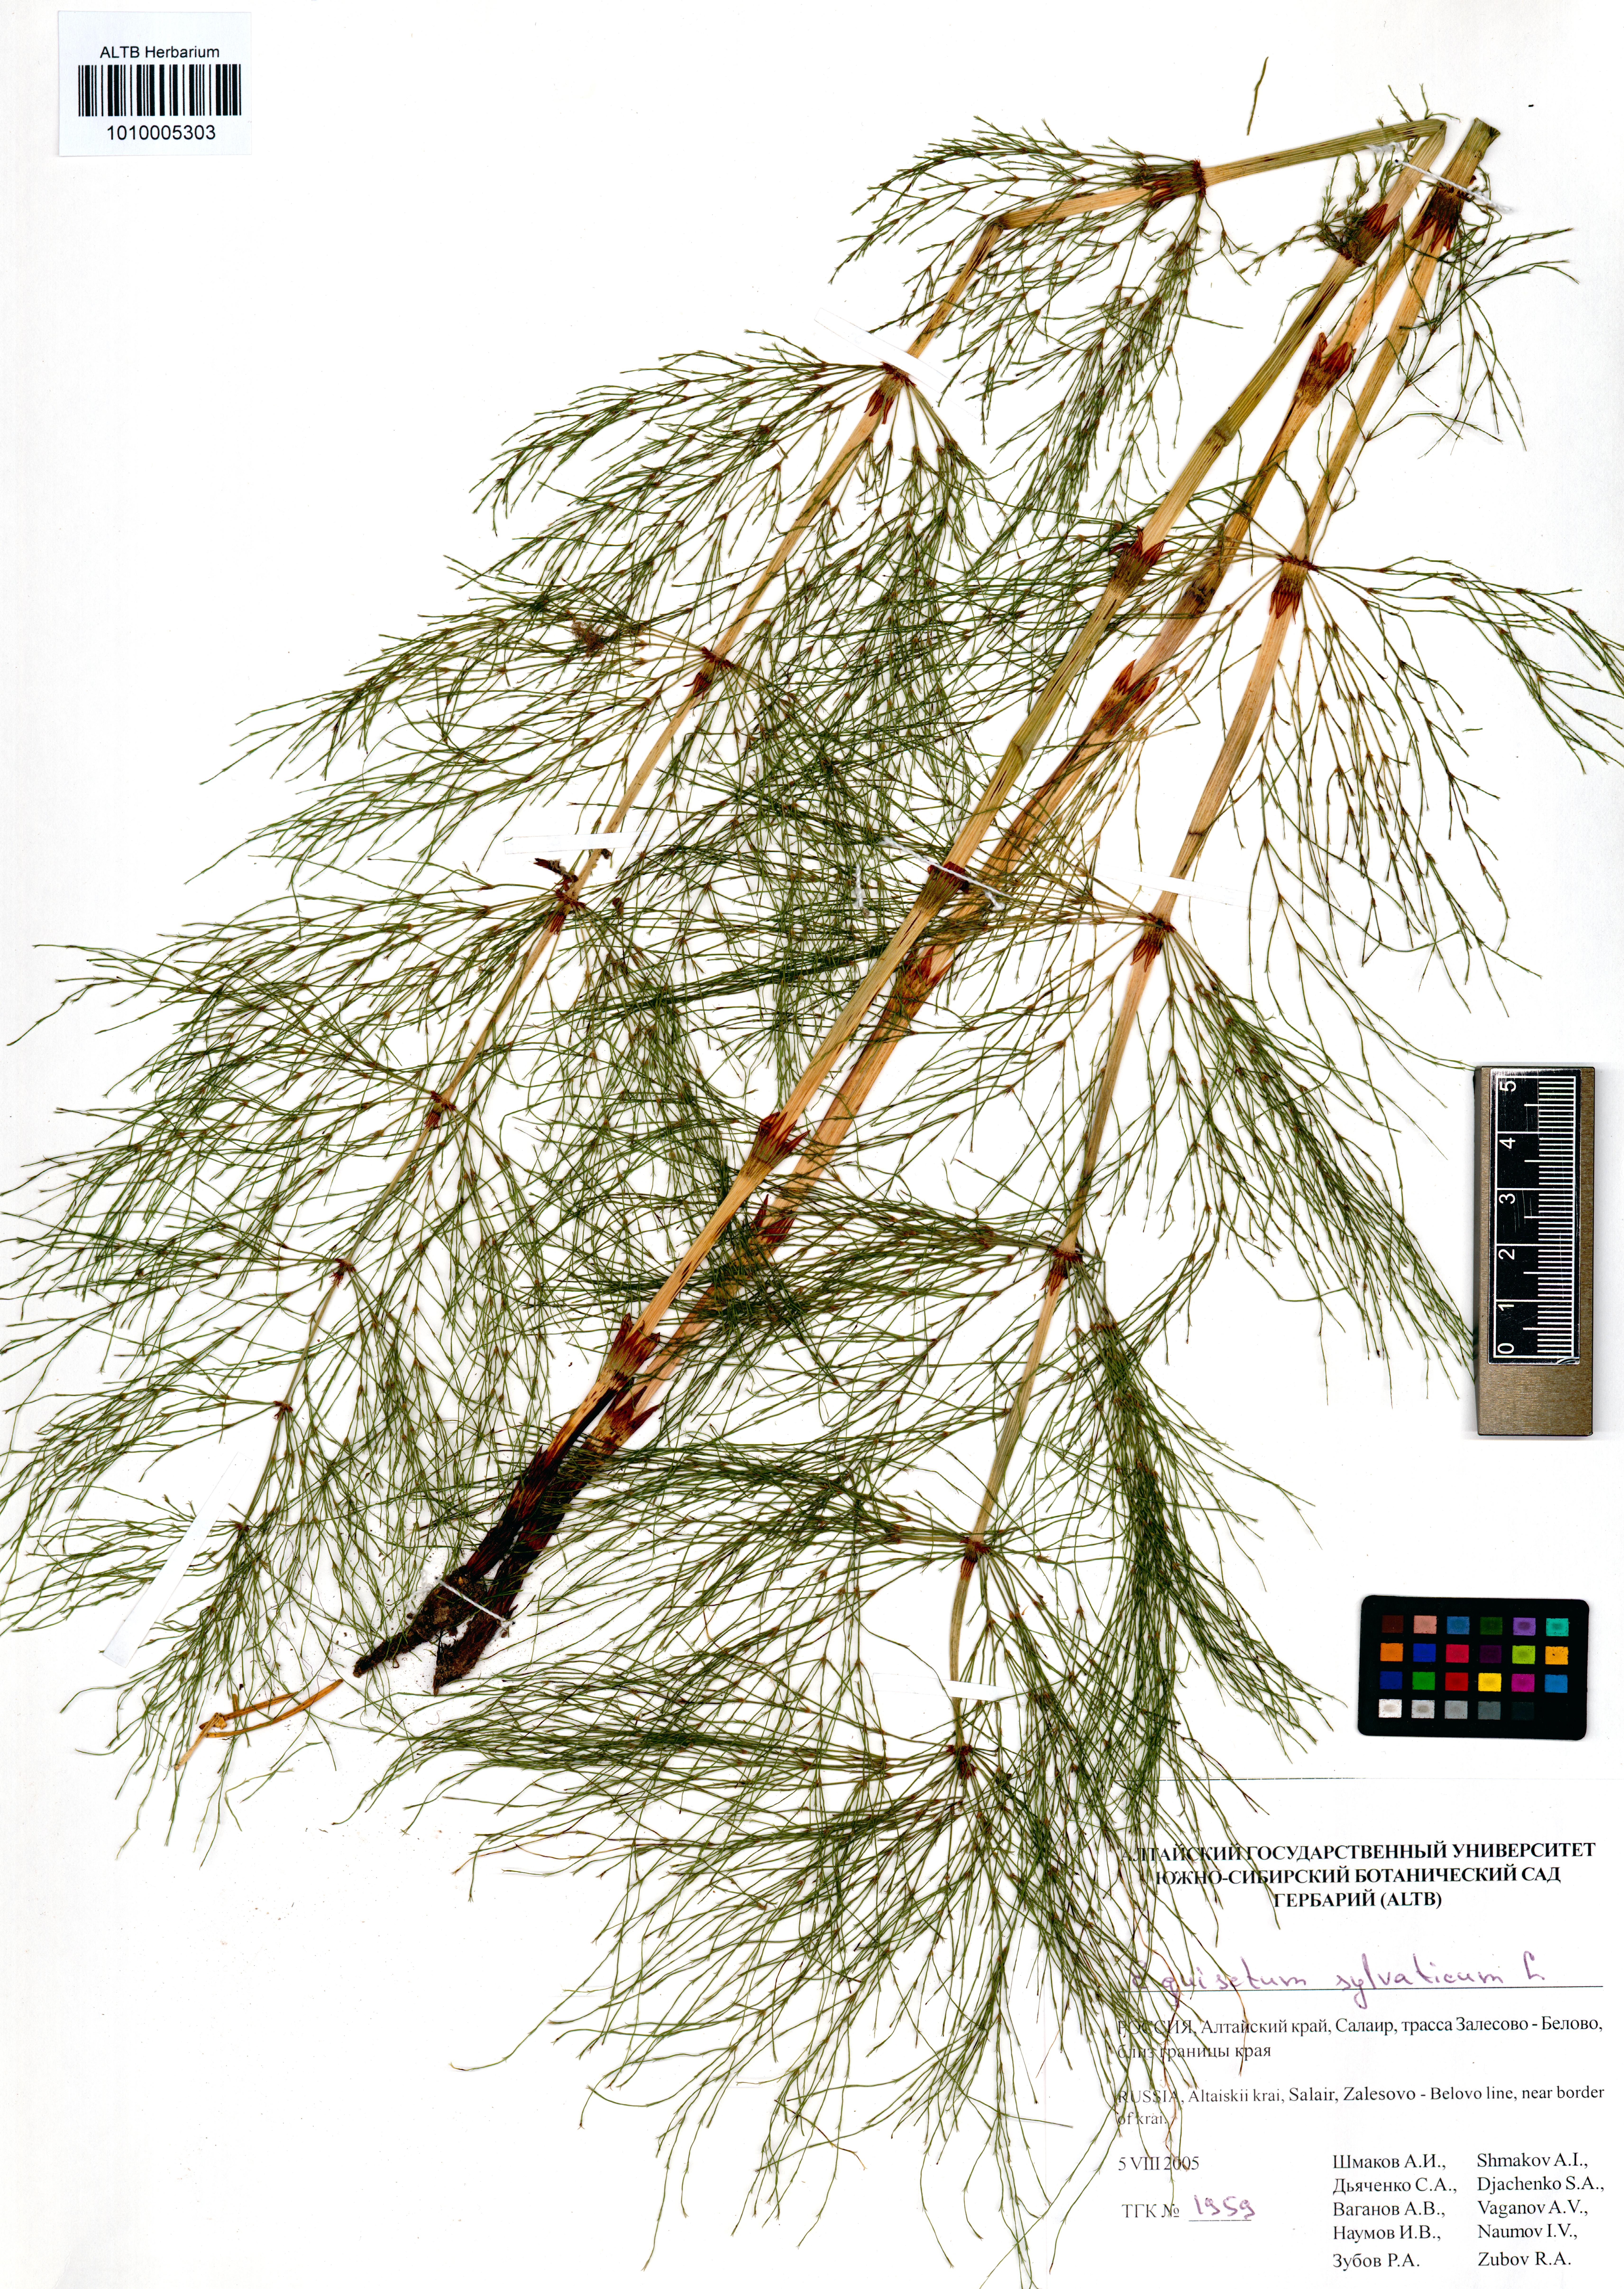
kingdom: Plantae
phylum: Tracheophyta
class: Polypodiopsida
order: Equisetales
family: Equisetaceae
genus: Equisetum
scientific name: Equisetum sylvaticum
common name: Wood horsetail
